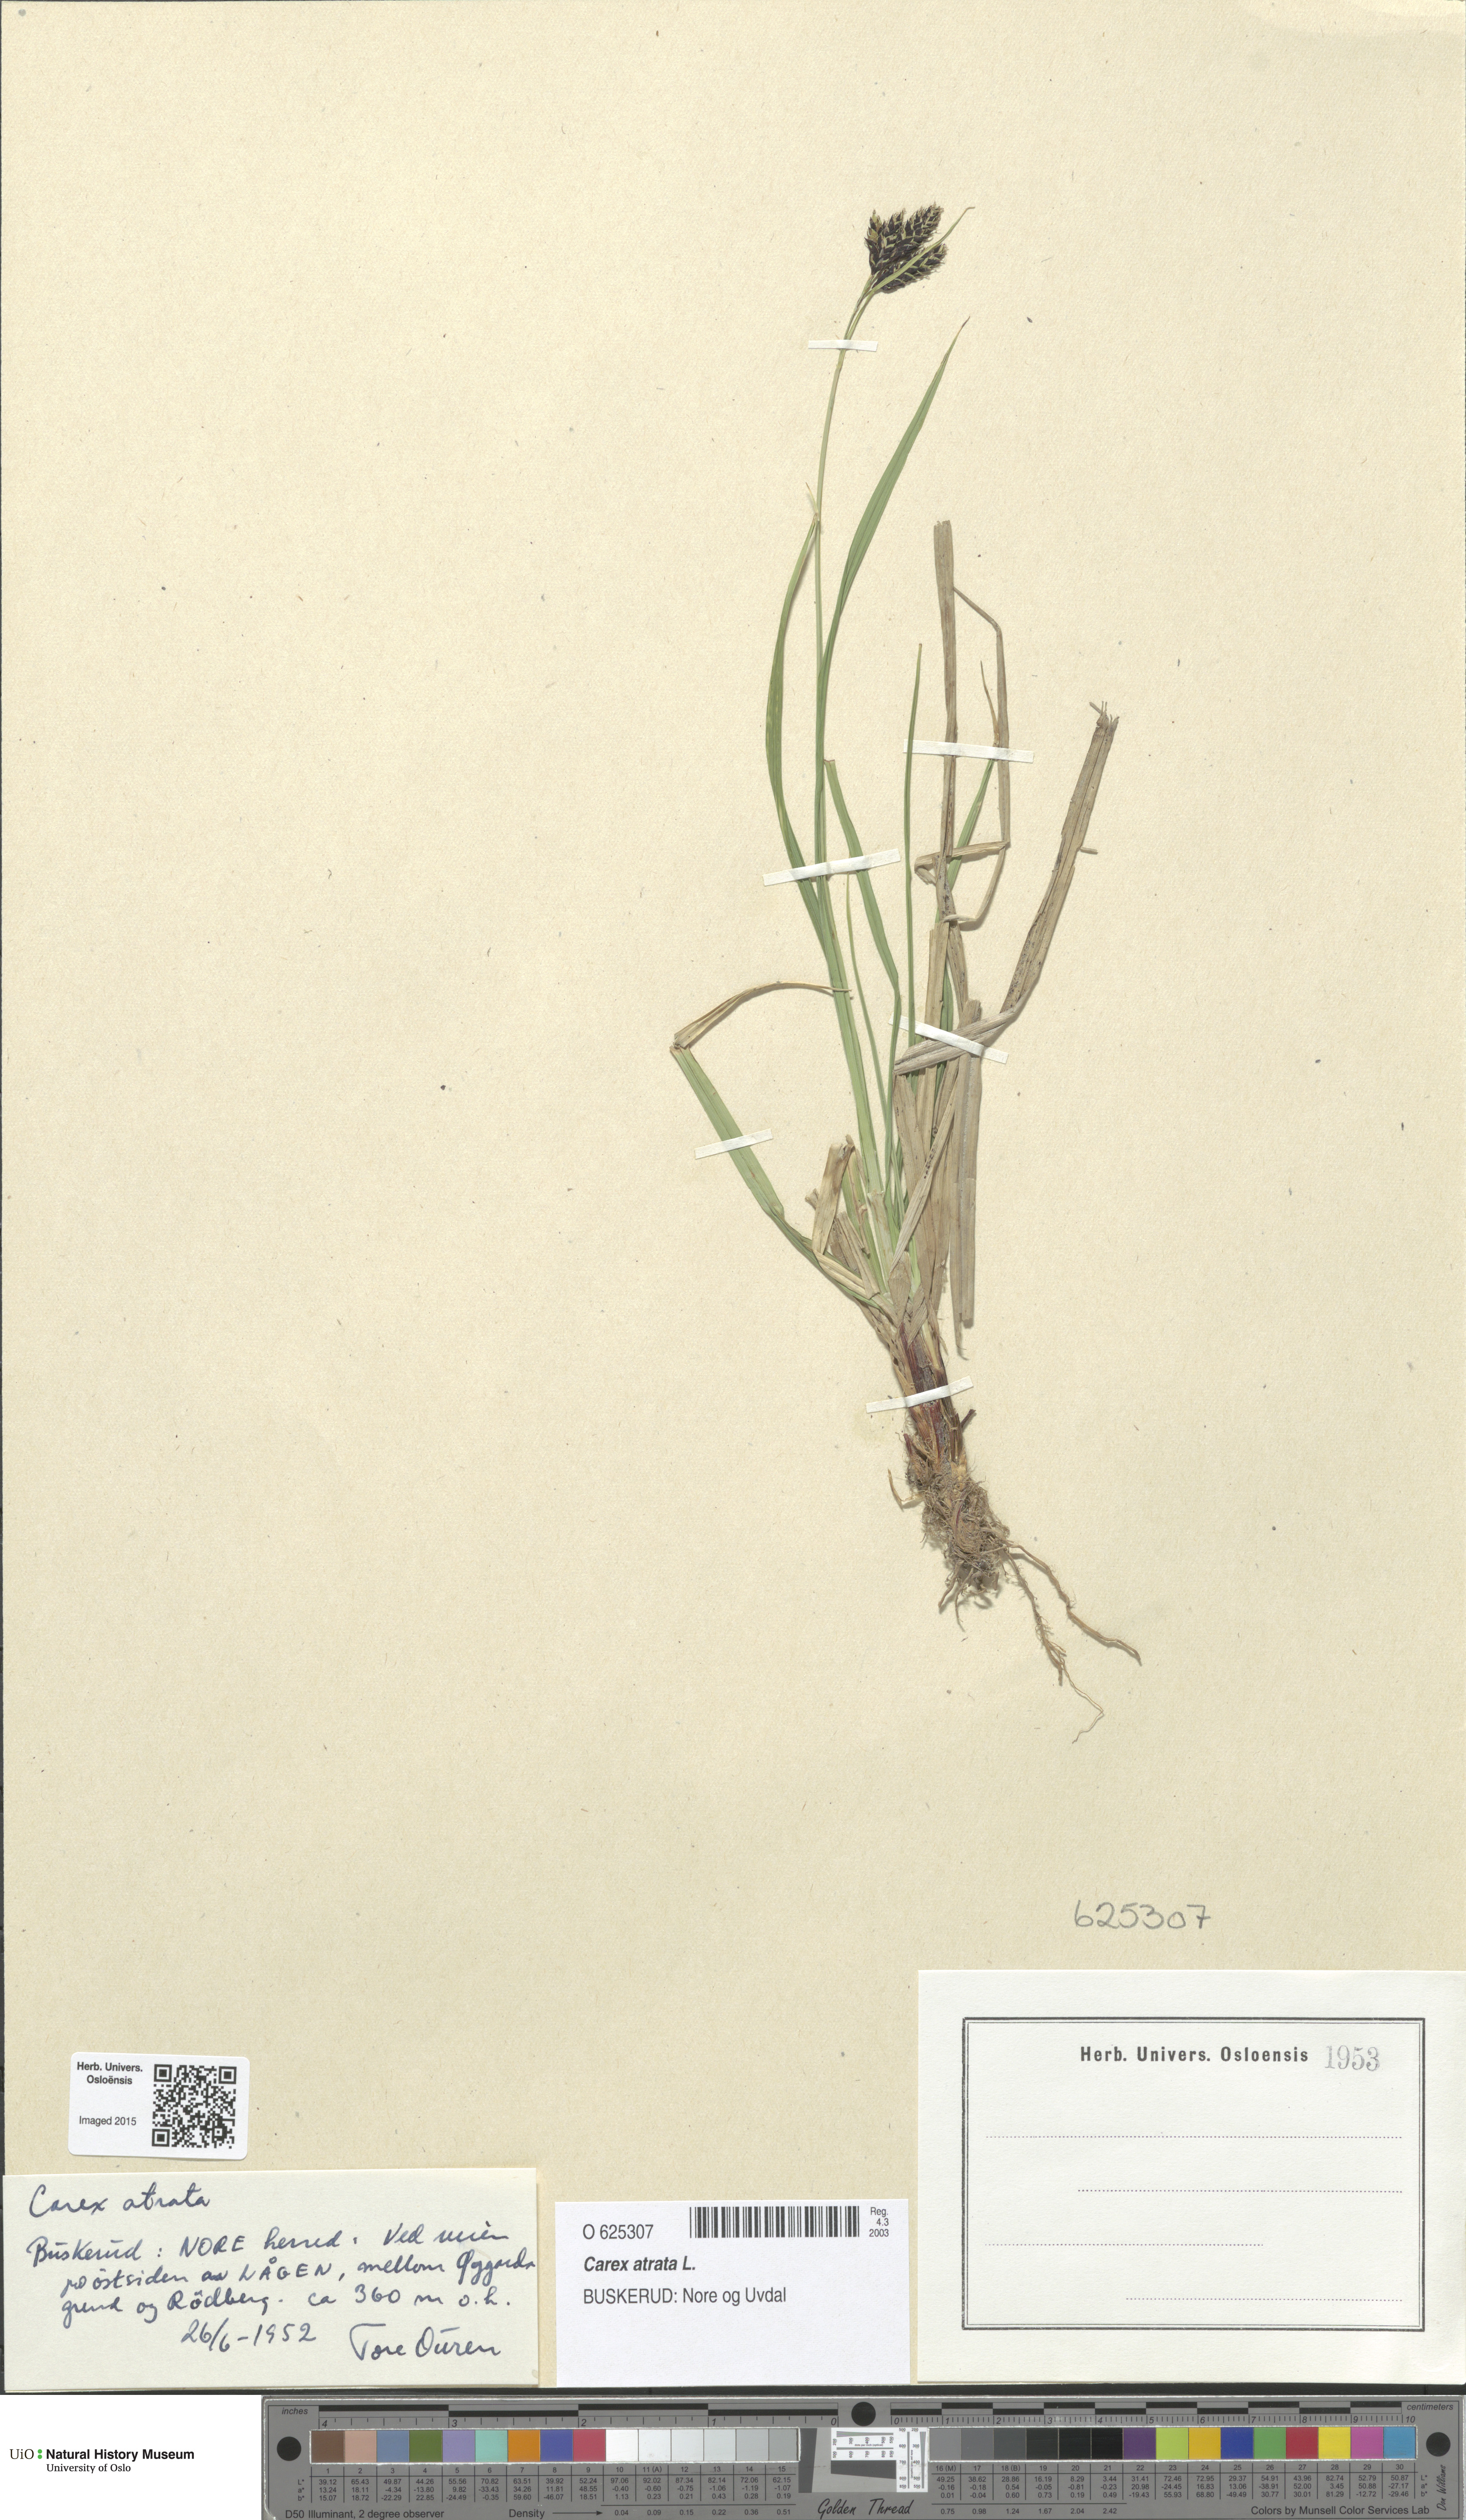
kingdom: Plantae
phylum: Tracheophyta
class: Liliopsida
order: Poales
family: Cyperaceae
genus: Carex
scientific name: Carex atrata
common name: Black alpine sedge
